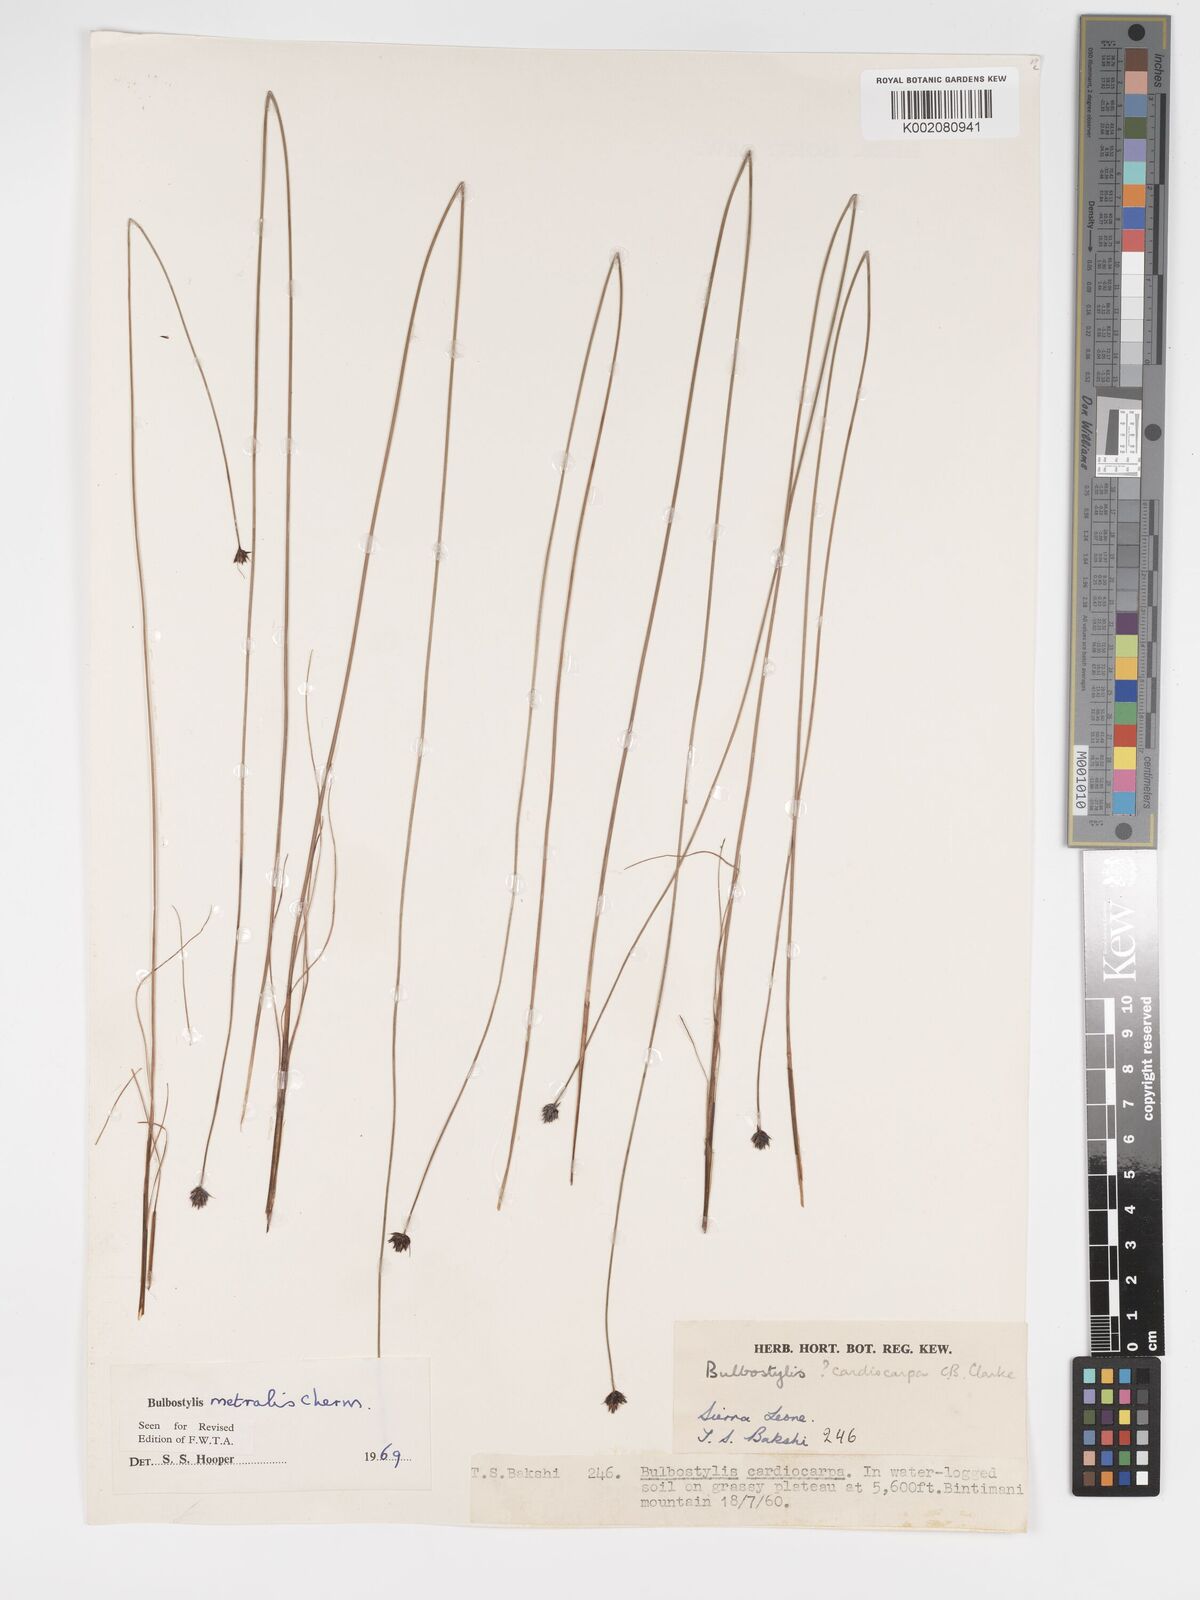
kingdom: Plantae
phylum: Tracheophyta
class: Liliopsida
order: Poales
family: Cyperaceae
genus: Bulbostylis
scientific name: Bulbostylis filamentosa
